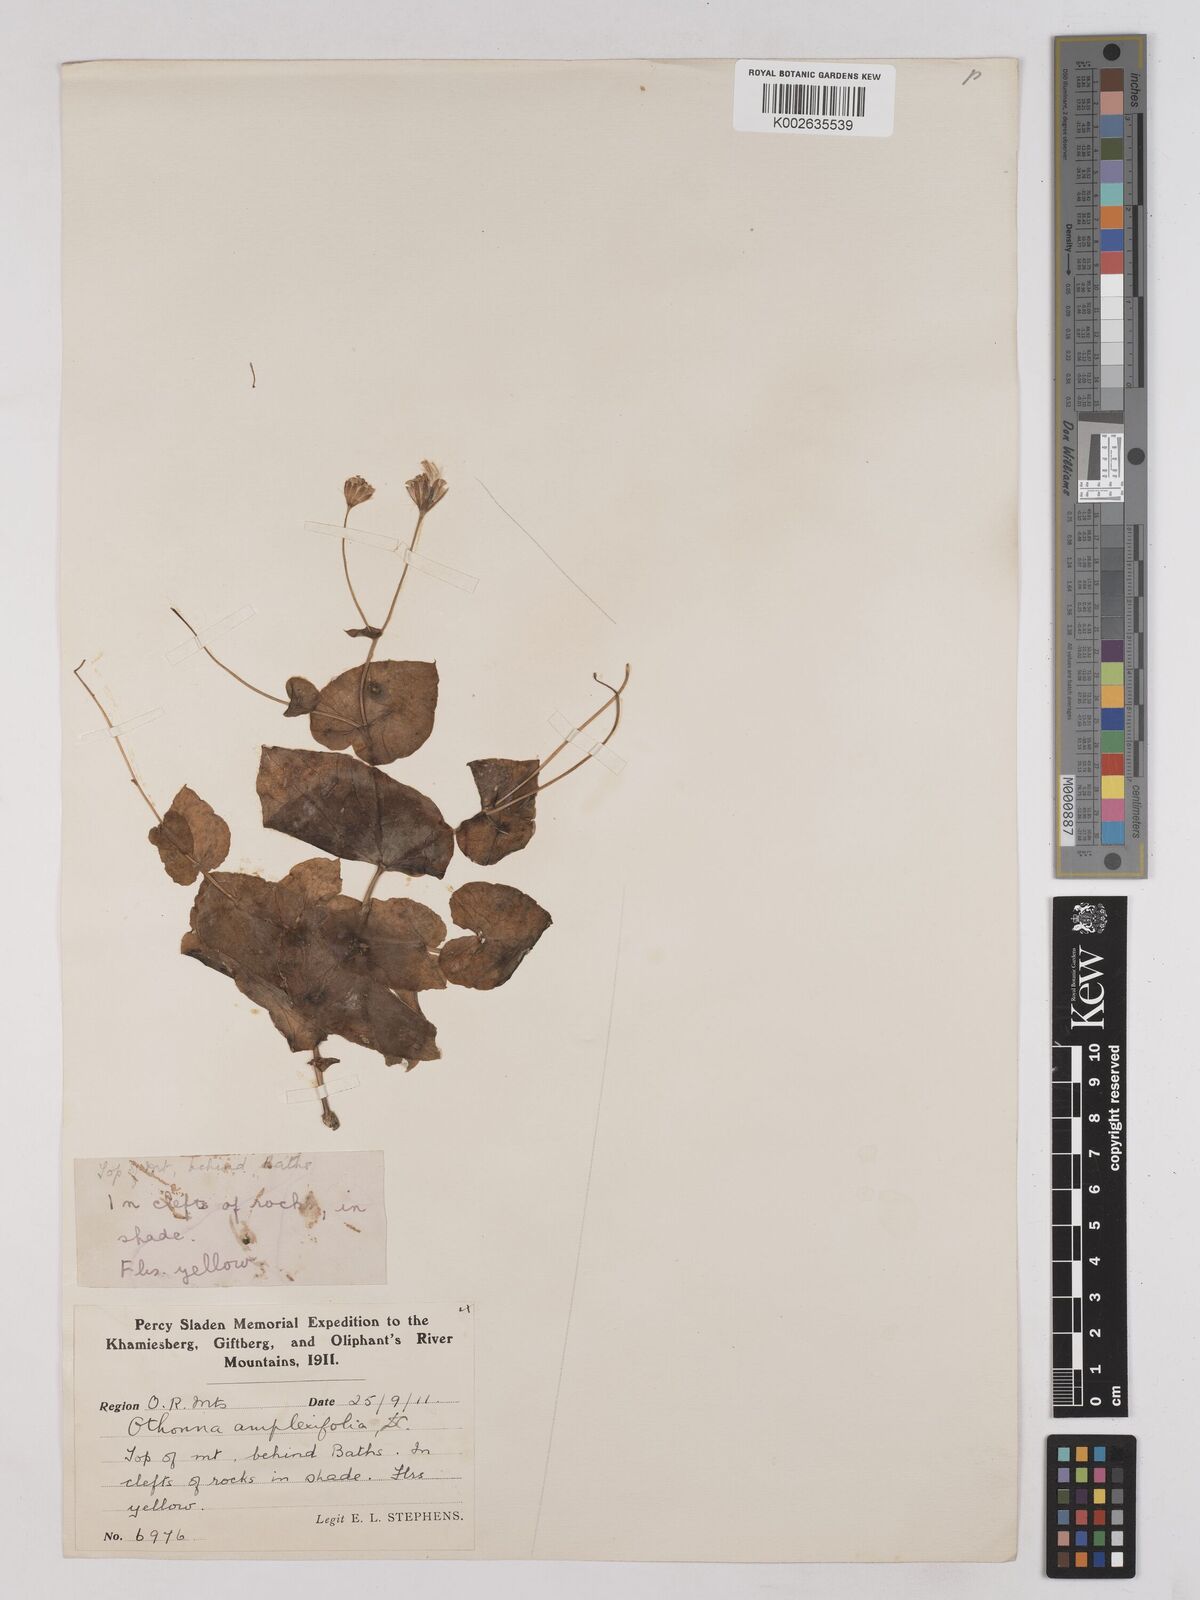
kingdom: Plantae
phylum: Tracheophyta
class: Magnoliopsida
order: Asterales
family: Asteraceae
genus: Othonna
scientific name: Othonna amplexifolia
